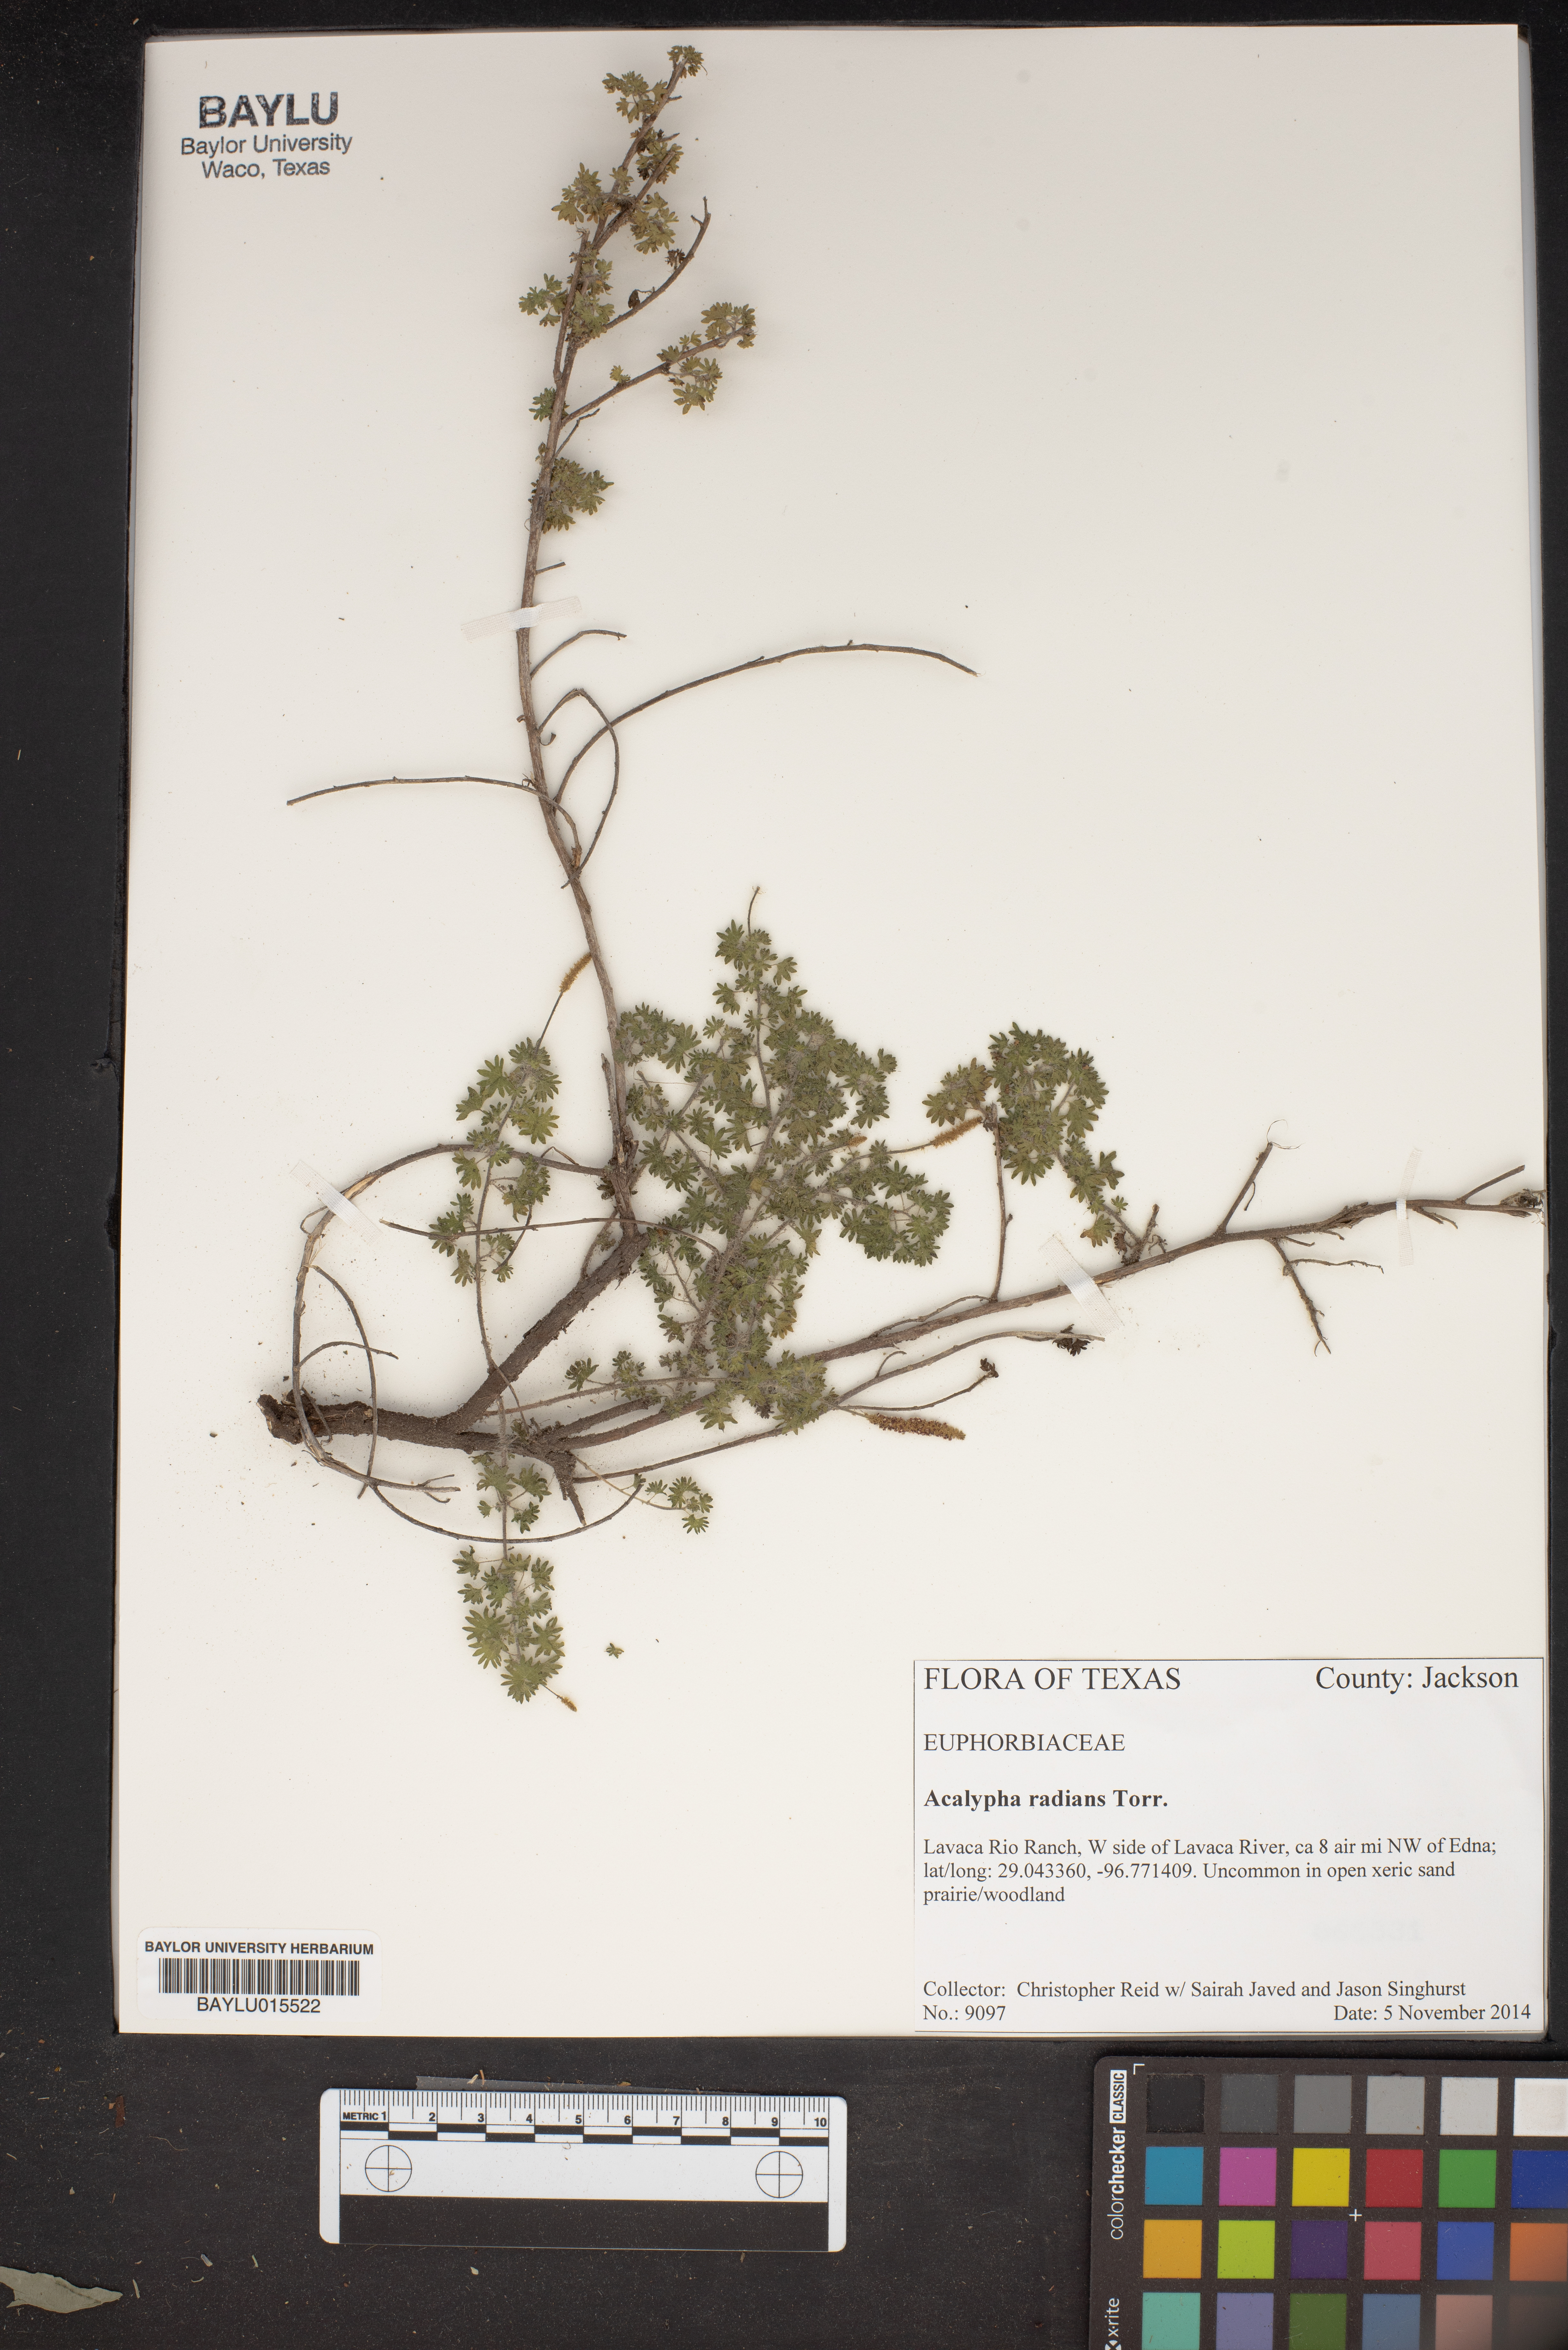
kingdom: Plantae
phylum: Tracheophyta
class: Magnoliopsida
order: Malpighiales
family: Euphorbiaceae
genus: Acalypha
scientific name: Acalypha radians
